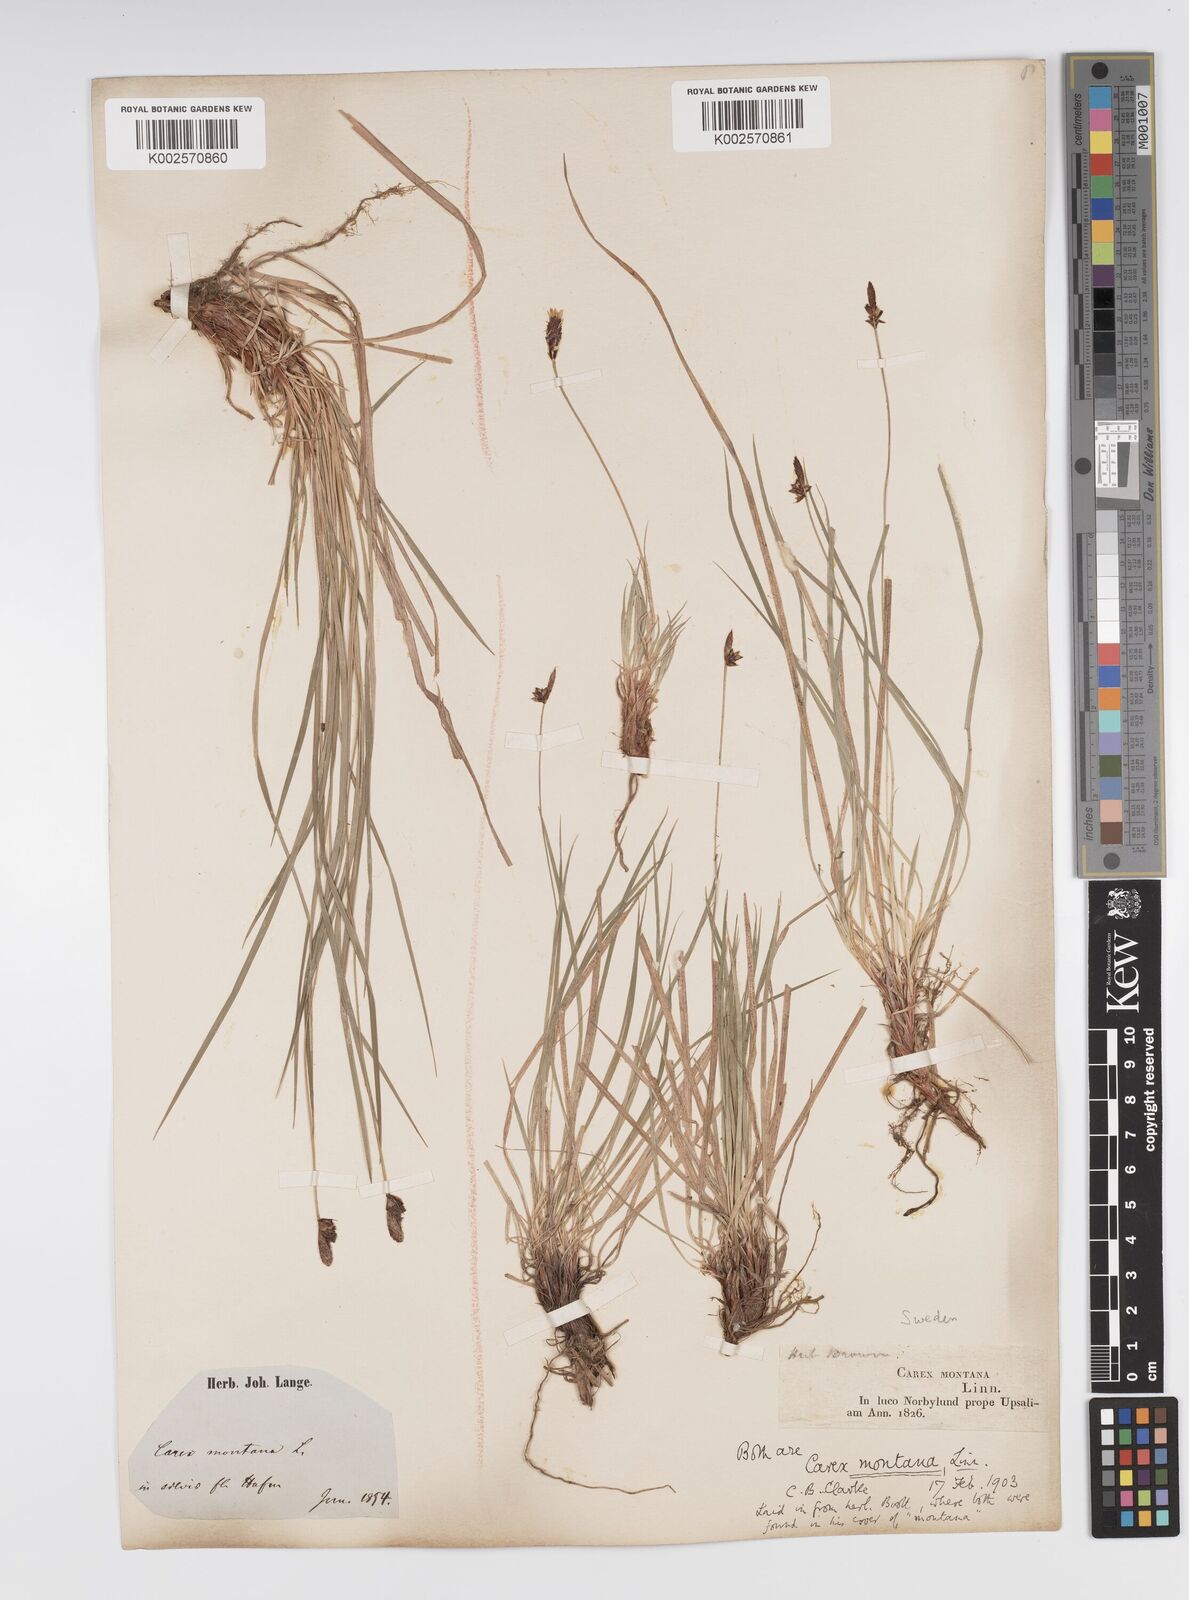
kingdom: Plantae
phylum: Tracheophyta
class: Liliopsida
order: Poales
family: Cyperaceae
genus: Carex
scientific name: Carex montana
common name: Soft-leaved sedge
